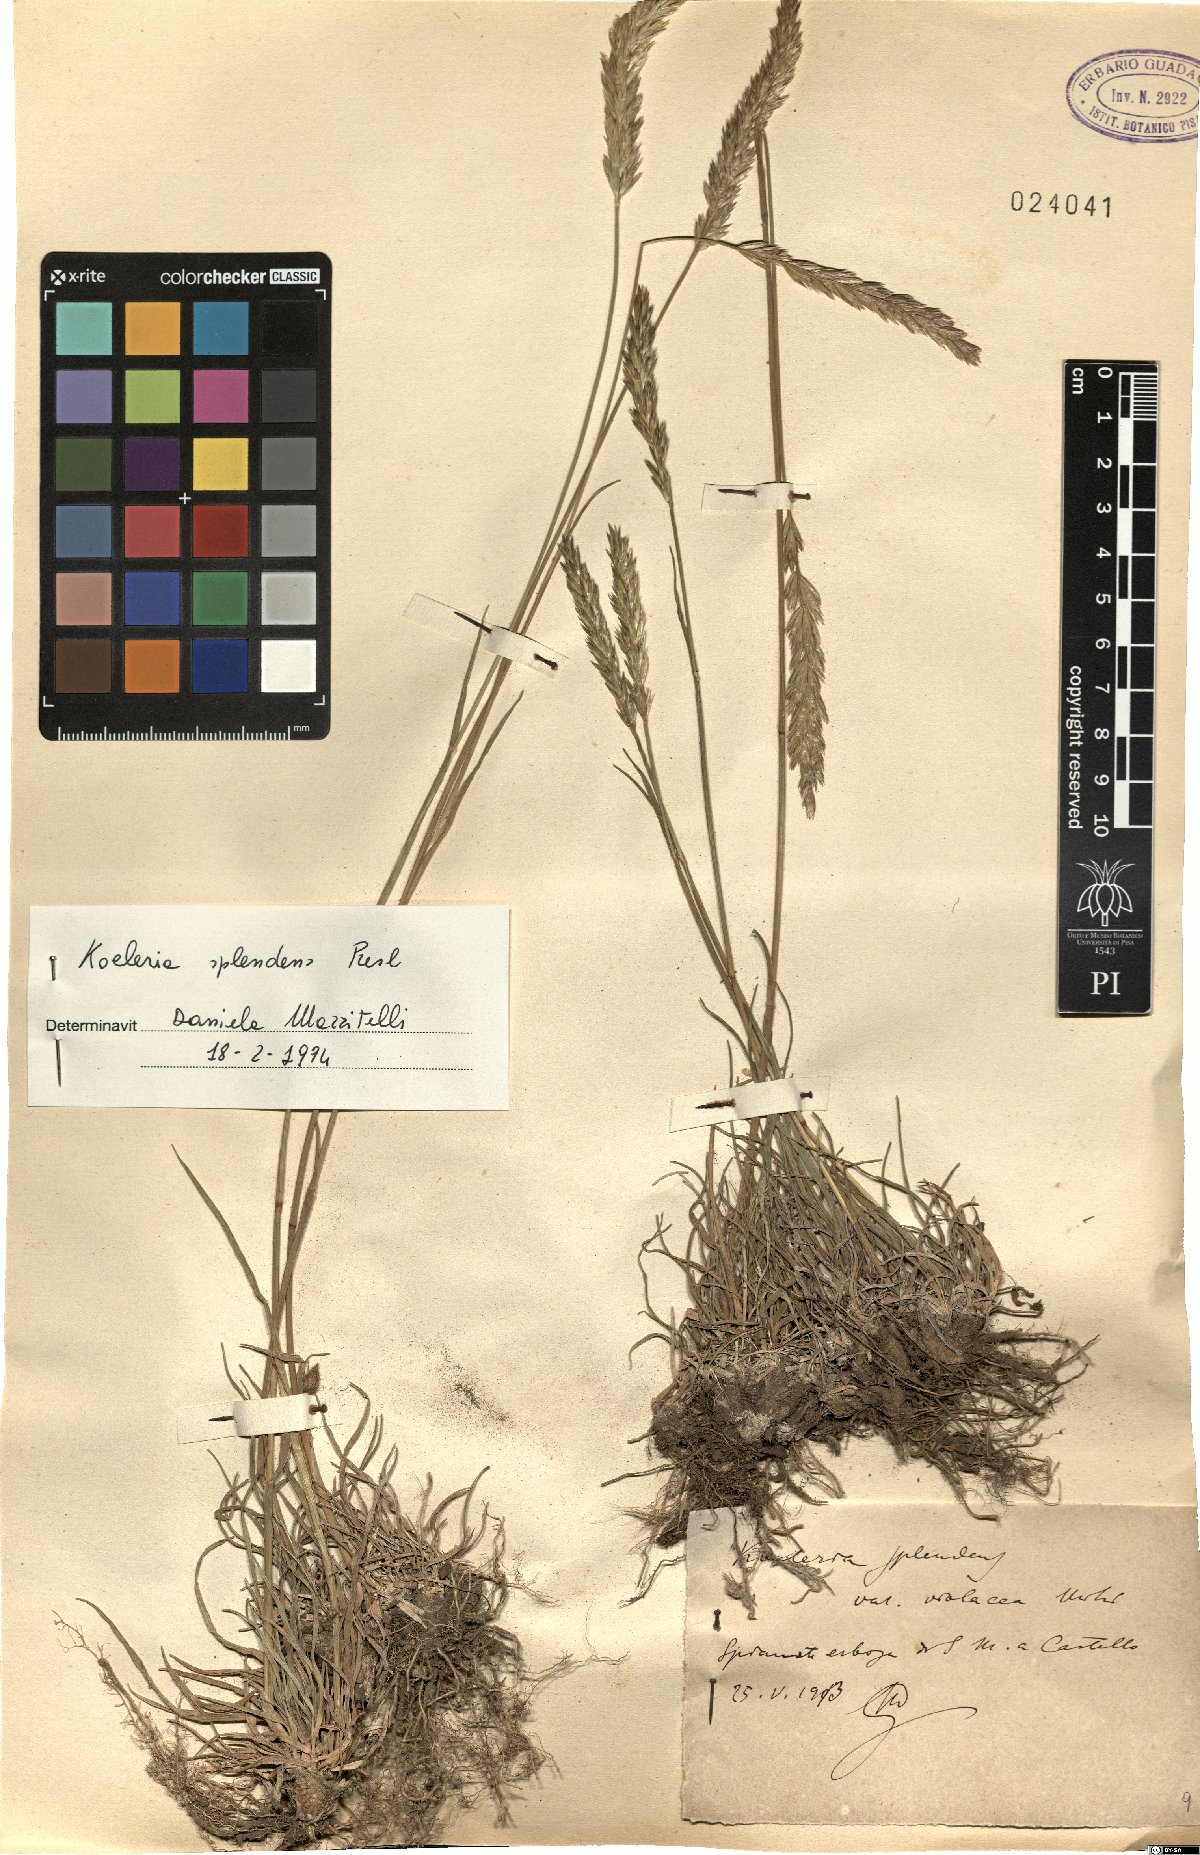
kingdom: Plantae
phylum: Tracheophyta
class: Liliopsida
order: Poales
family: Poaceae
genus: Koeleria
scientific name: Koeleria splendens
